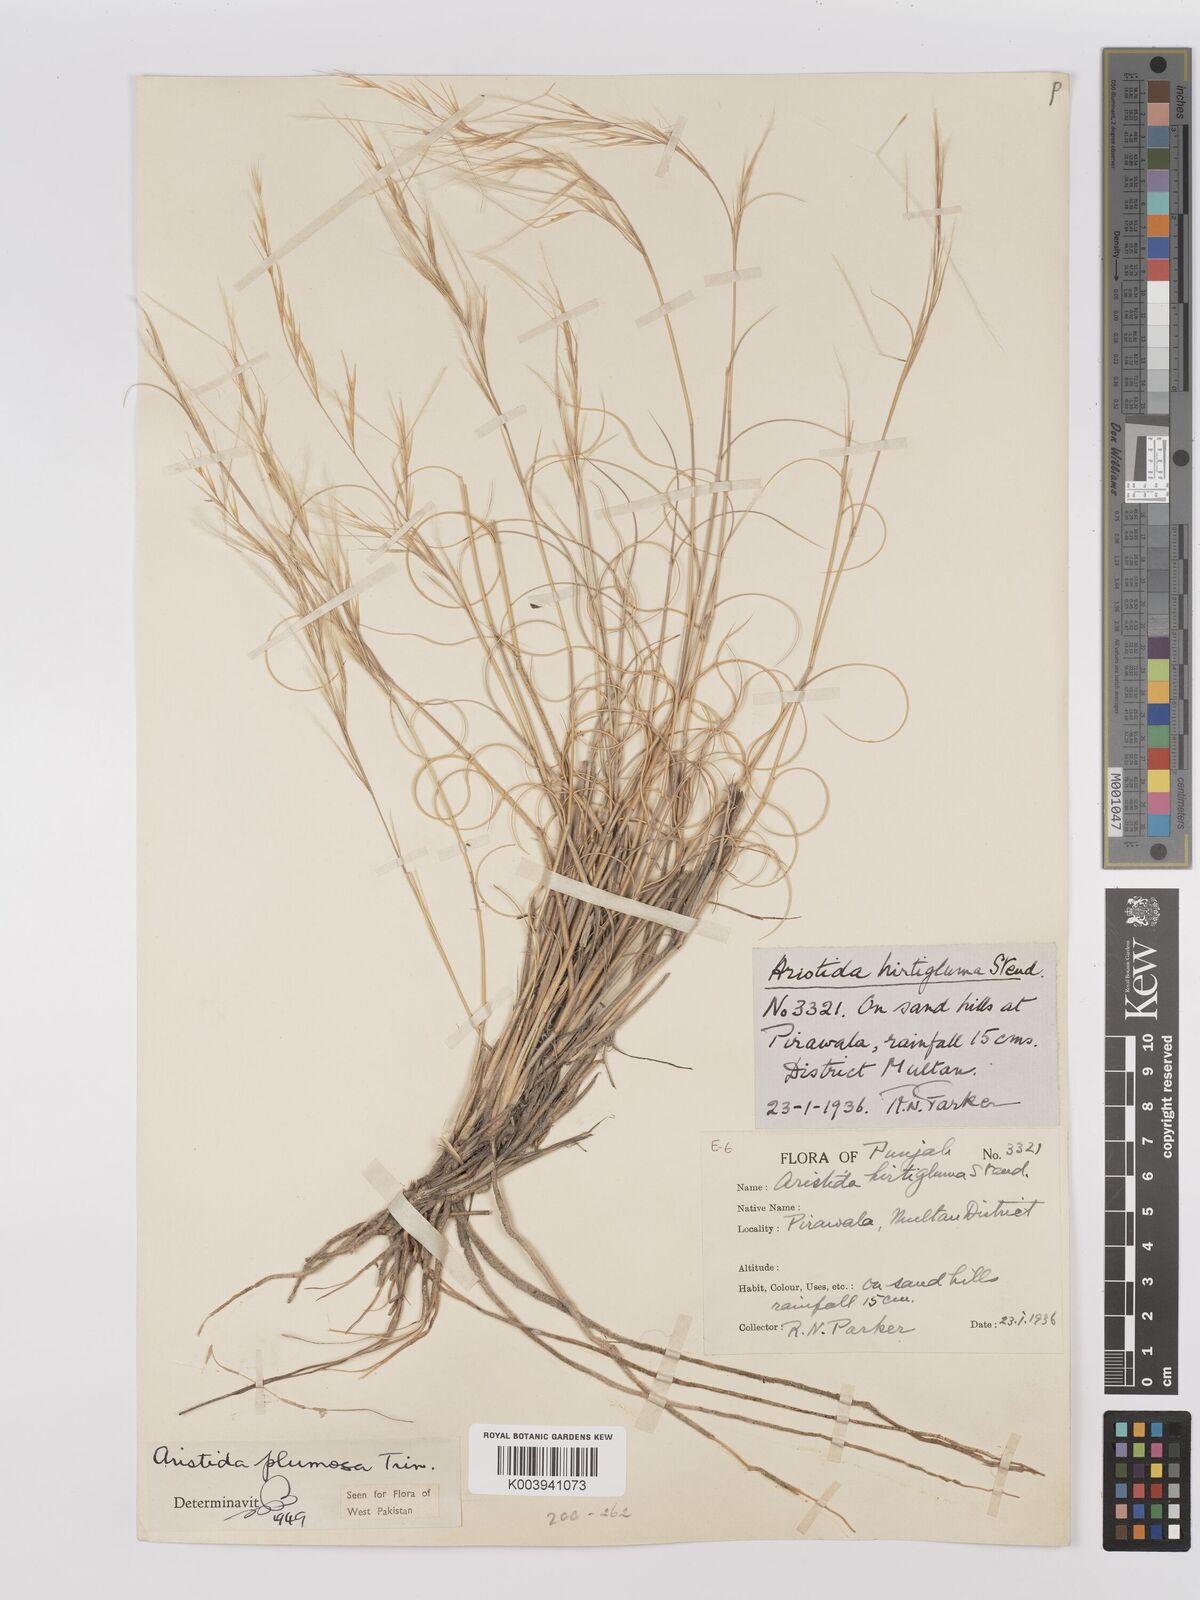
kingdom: Plantae
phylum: Tracheophyta
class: Liliopsida
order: Poales
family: Poaceae
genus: Stipagrostis
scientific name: Stipagrostis
